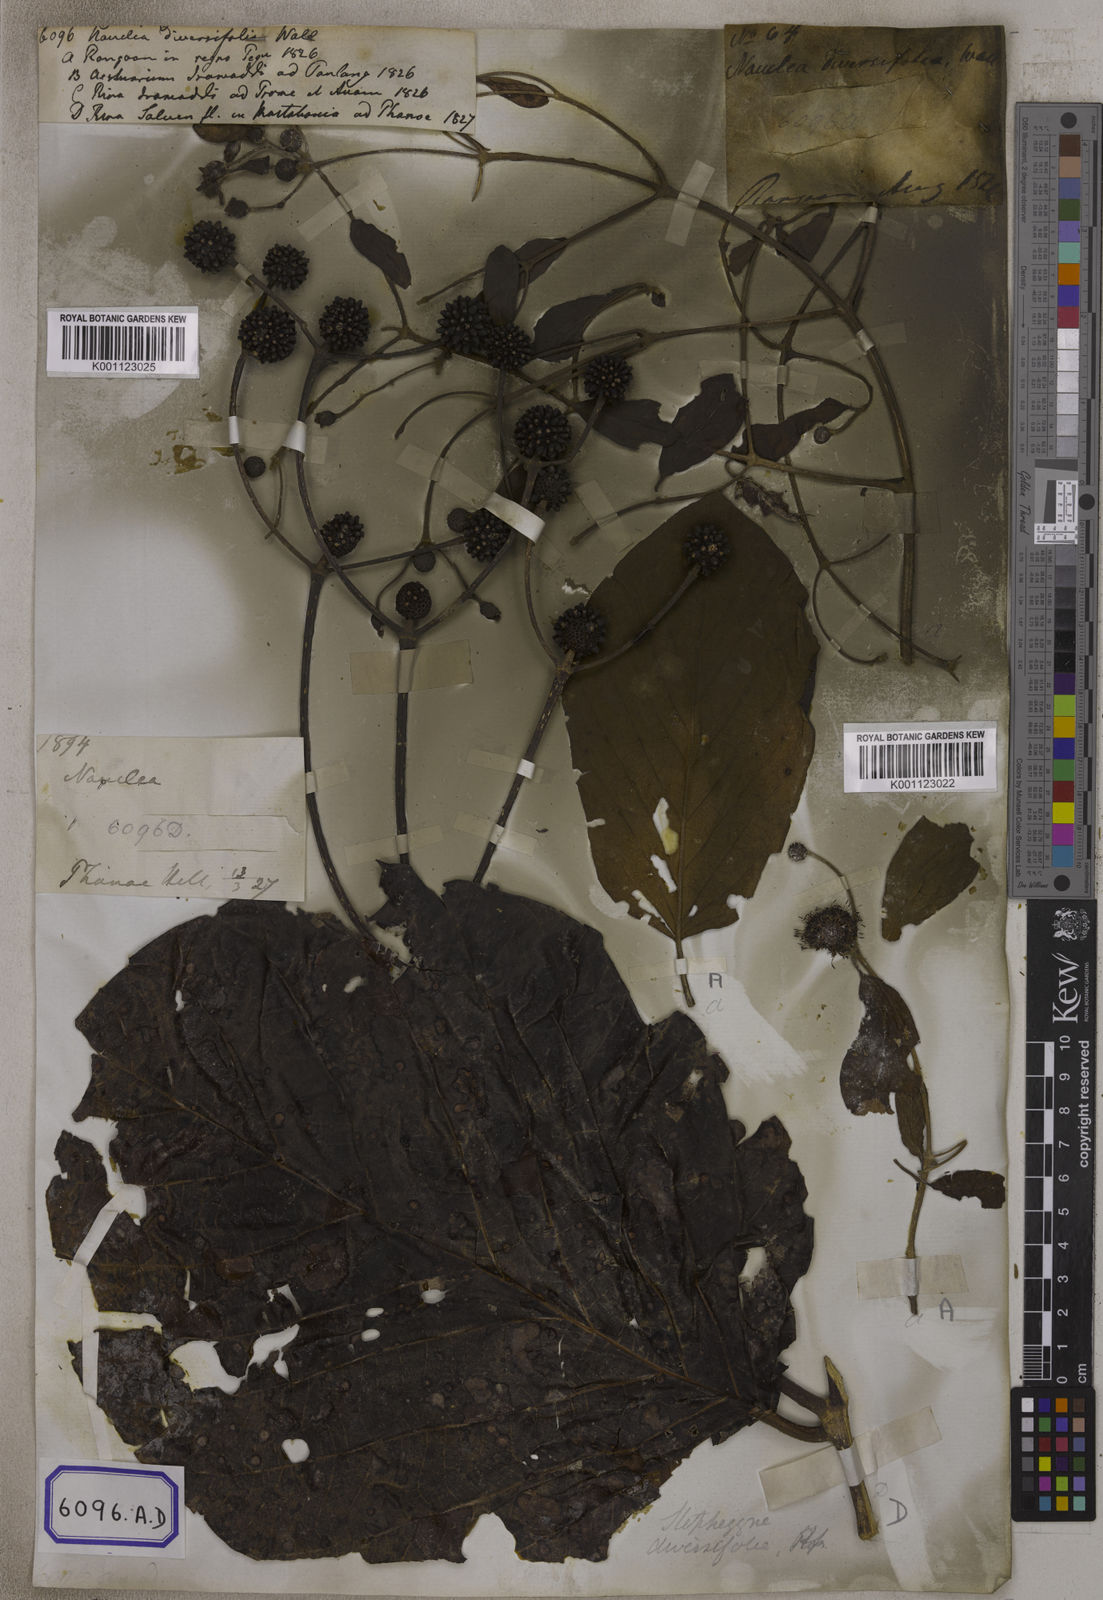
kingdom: Plantae
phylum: Tracheophyta
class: Magnoliopsida
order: Gentianales
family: Rubiaceae
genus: Nauclea
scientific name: Nauclea
